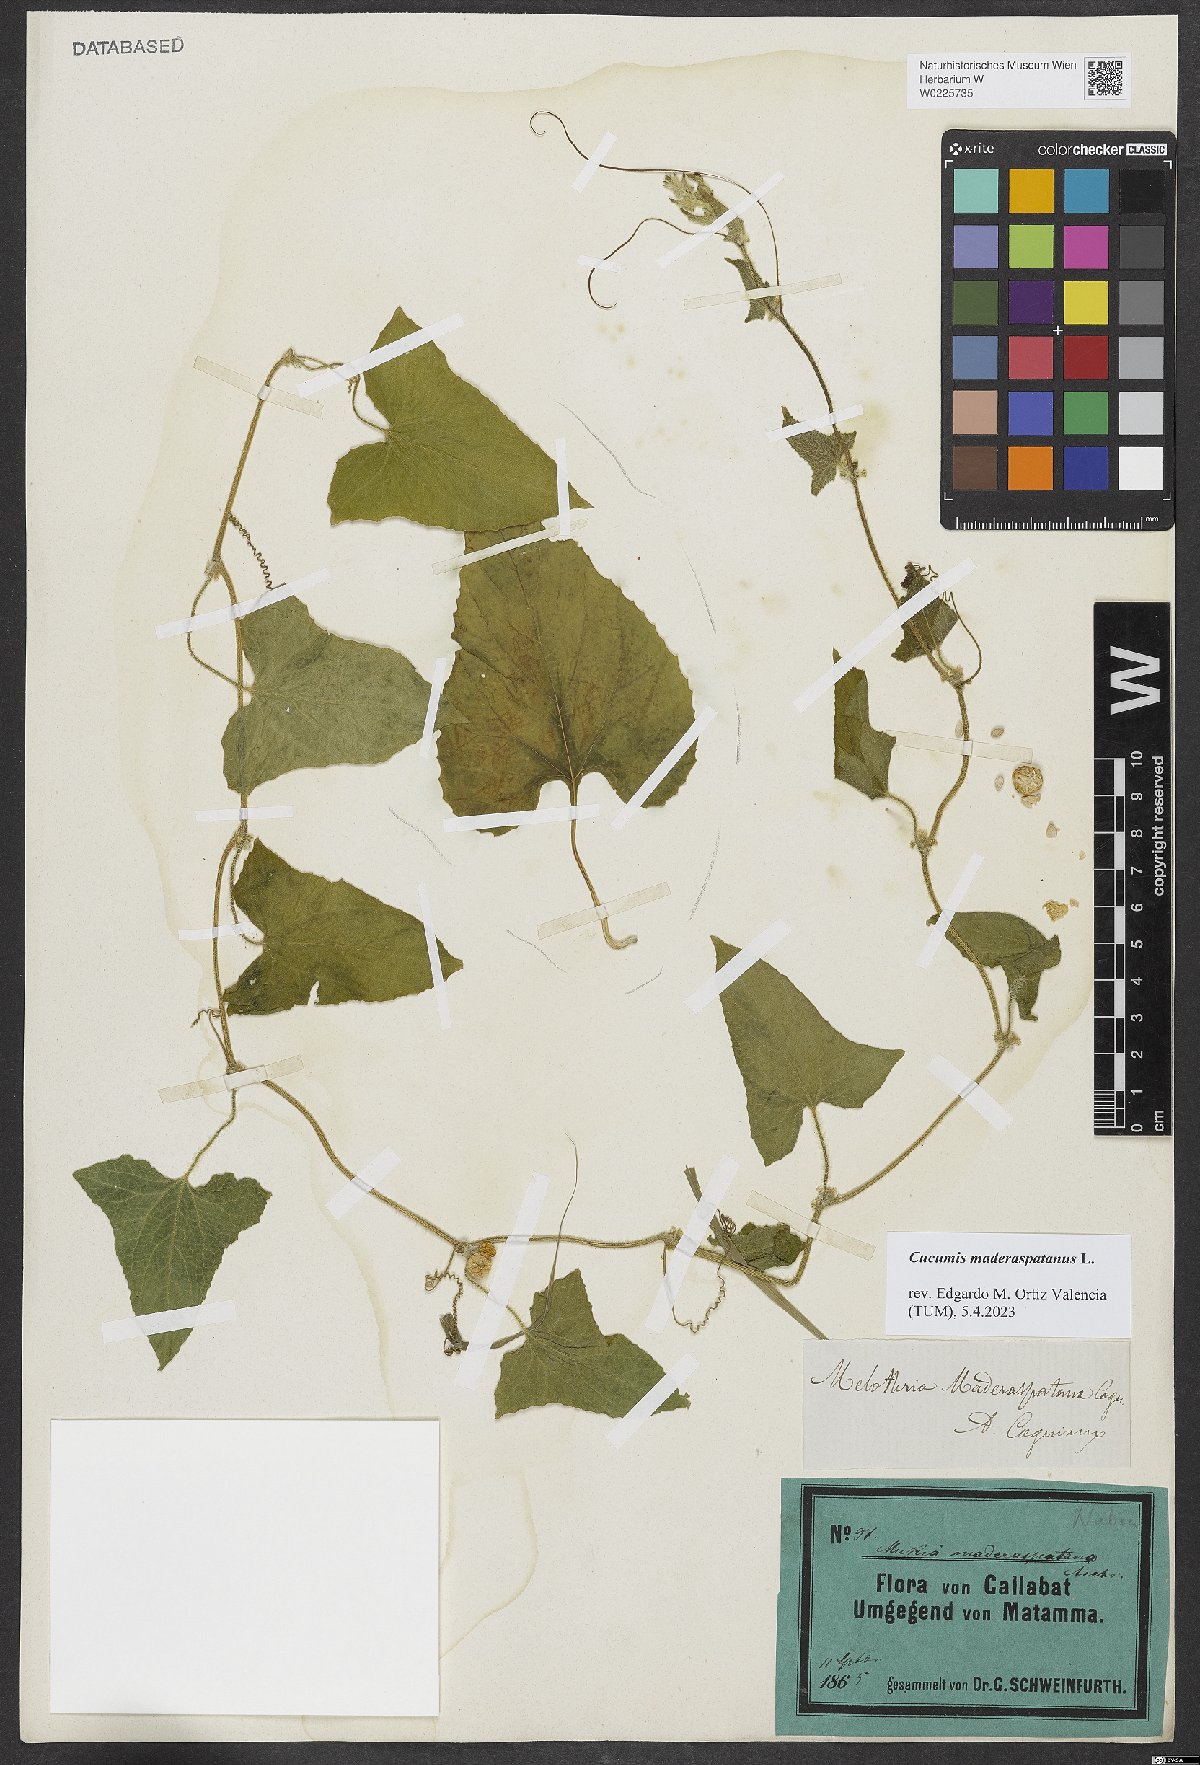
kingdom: Plantae
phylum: Tracheophyta
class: Magnoliopsida
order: Cucurbitales
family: Cucurbitaceae
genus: Cucumis
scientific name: Cucumis maderaspatanus
